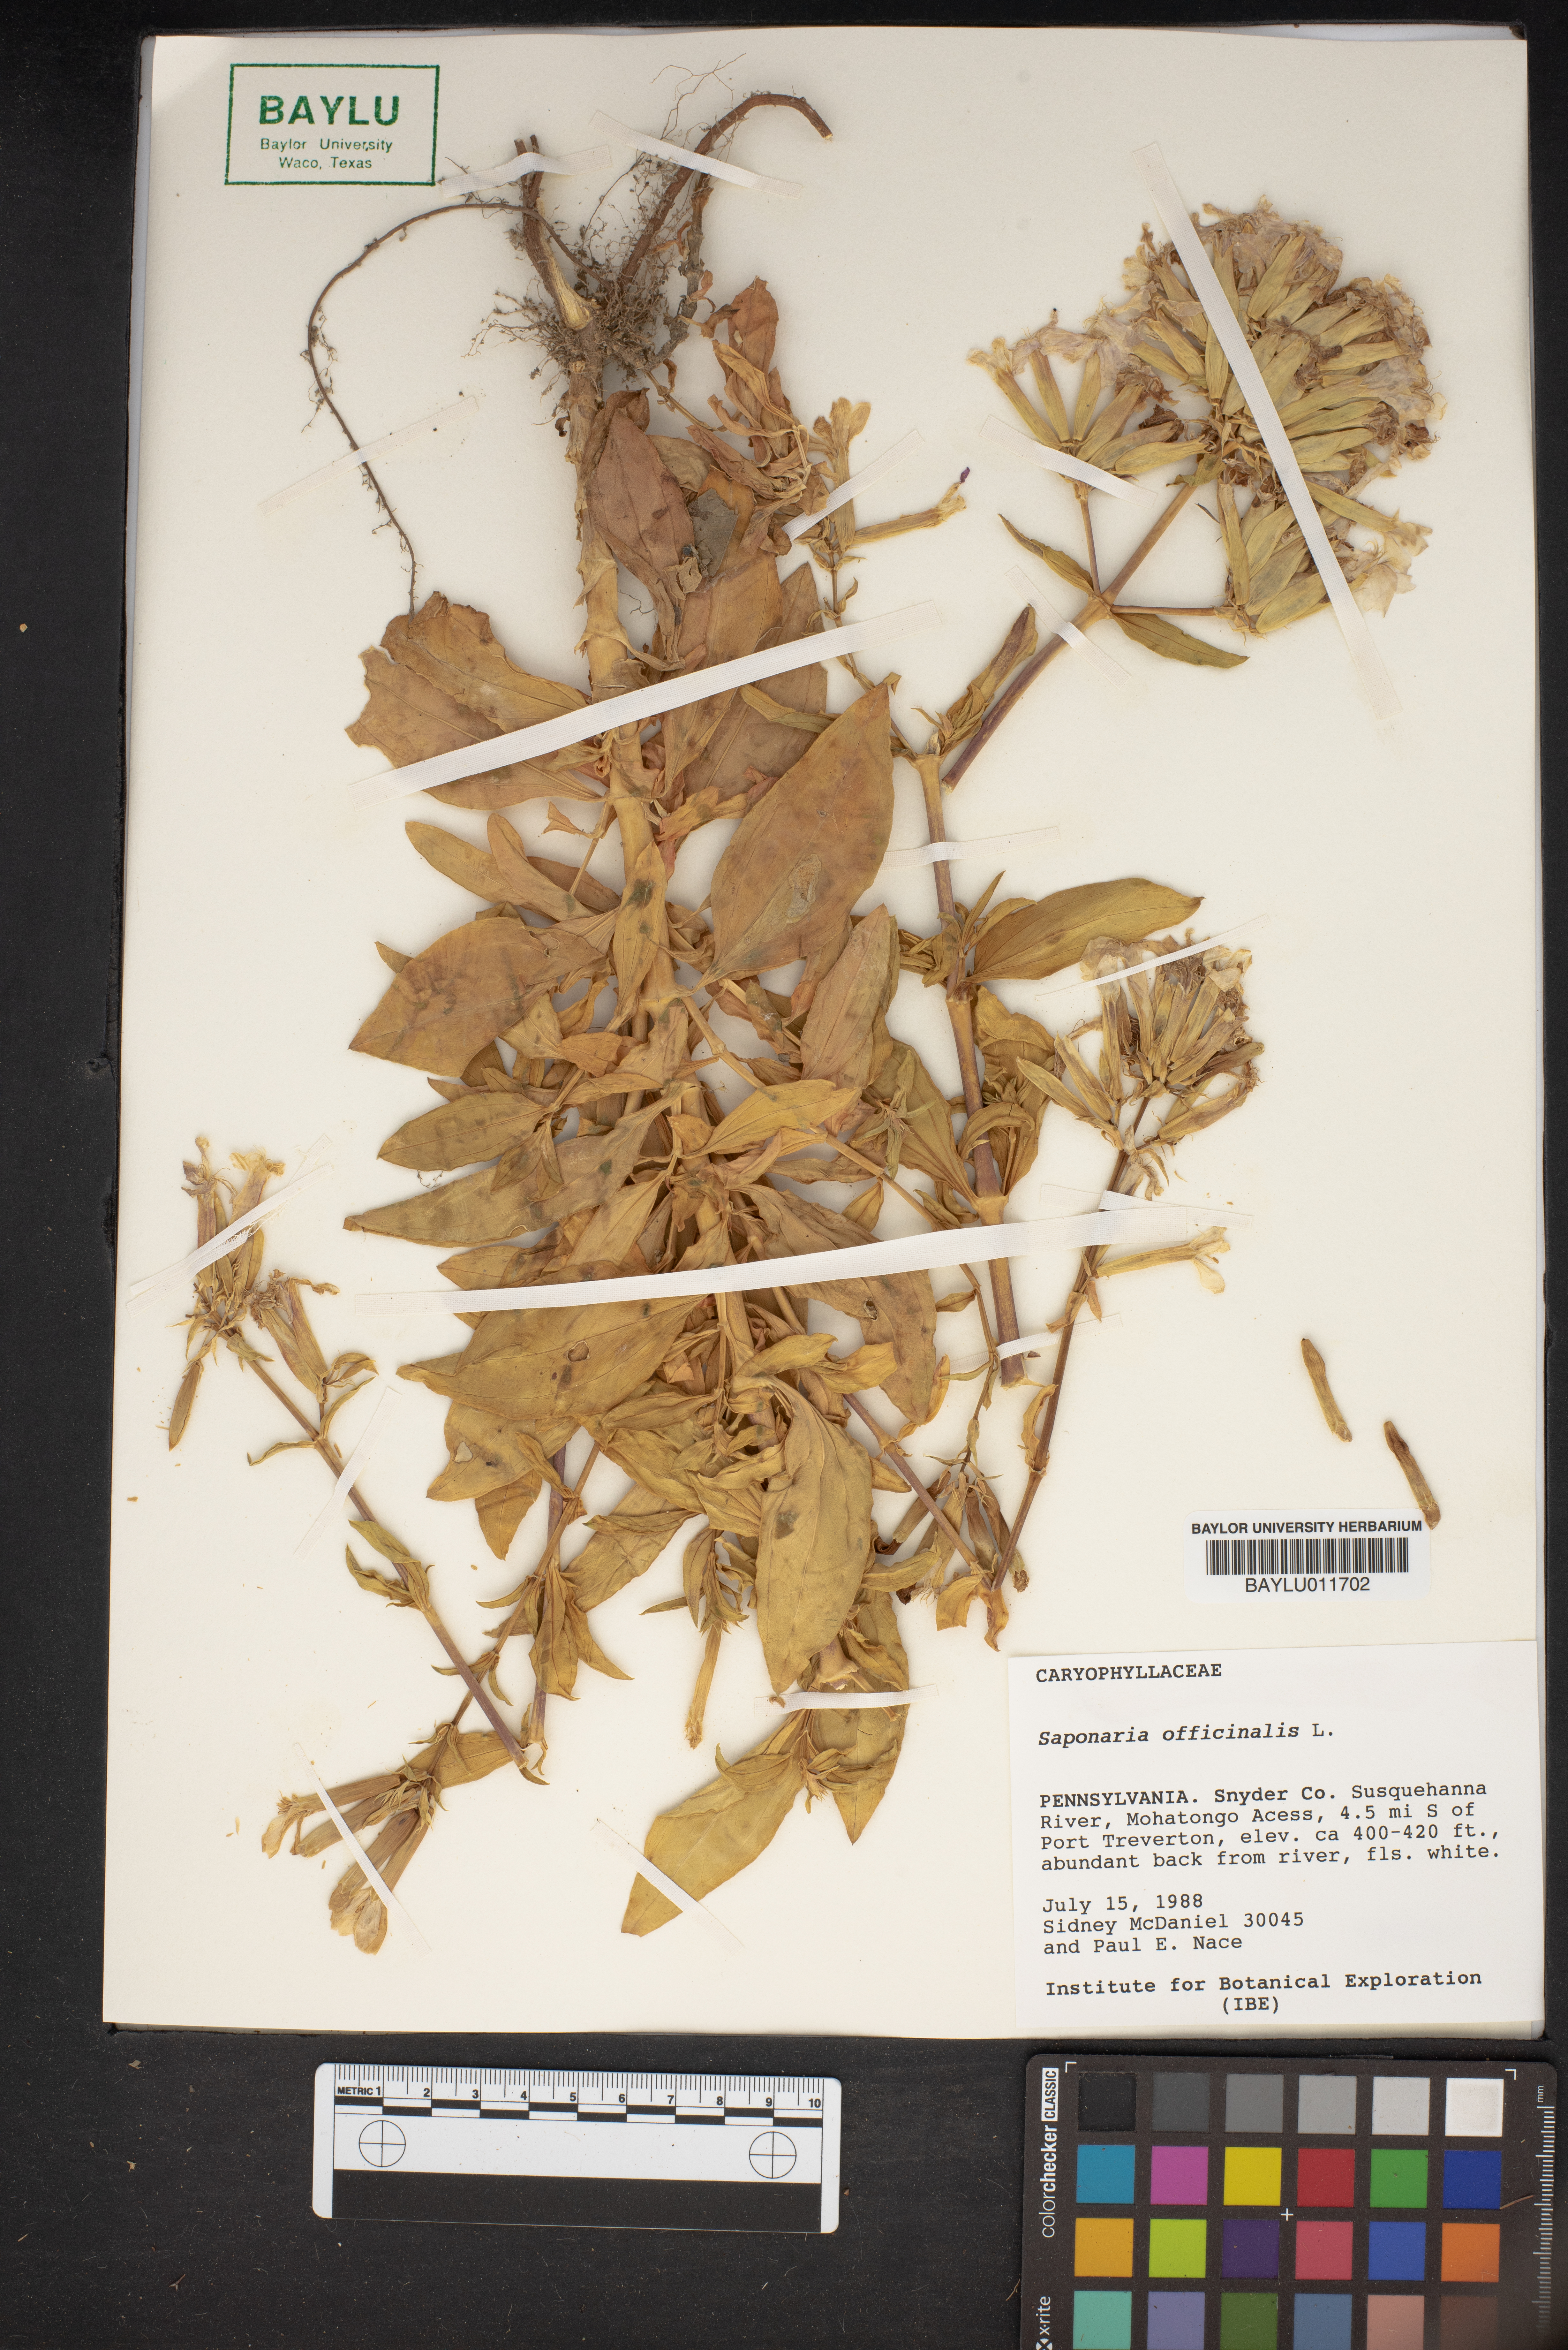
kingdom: Plantae
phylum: Tracheophyta
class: Magnoliopsida
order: Caryophyllales
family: Caryophyllaceae
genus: Saponaria
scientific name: Saponaria officinalis
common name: Soapwort
